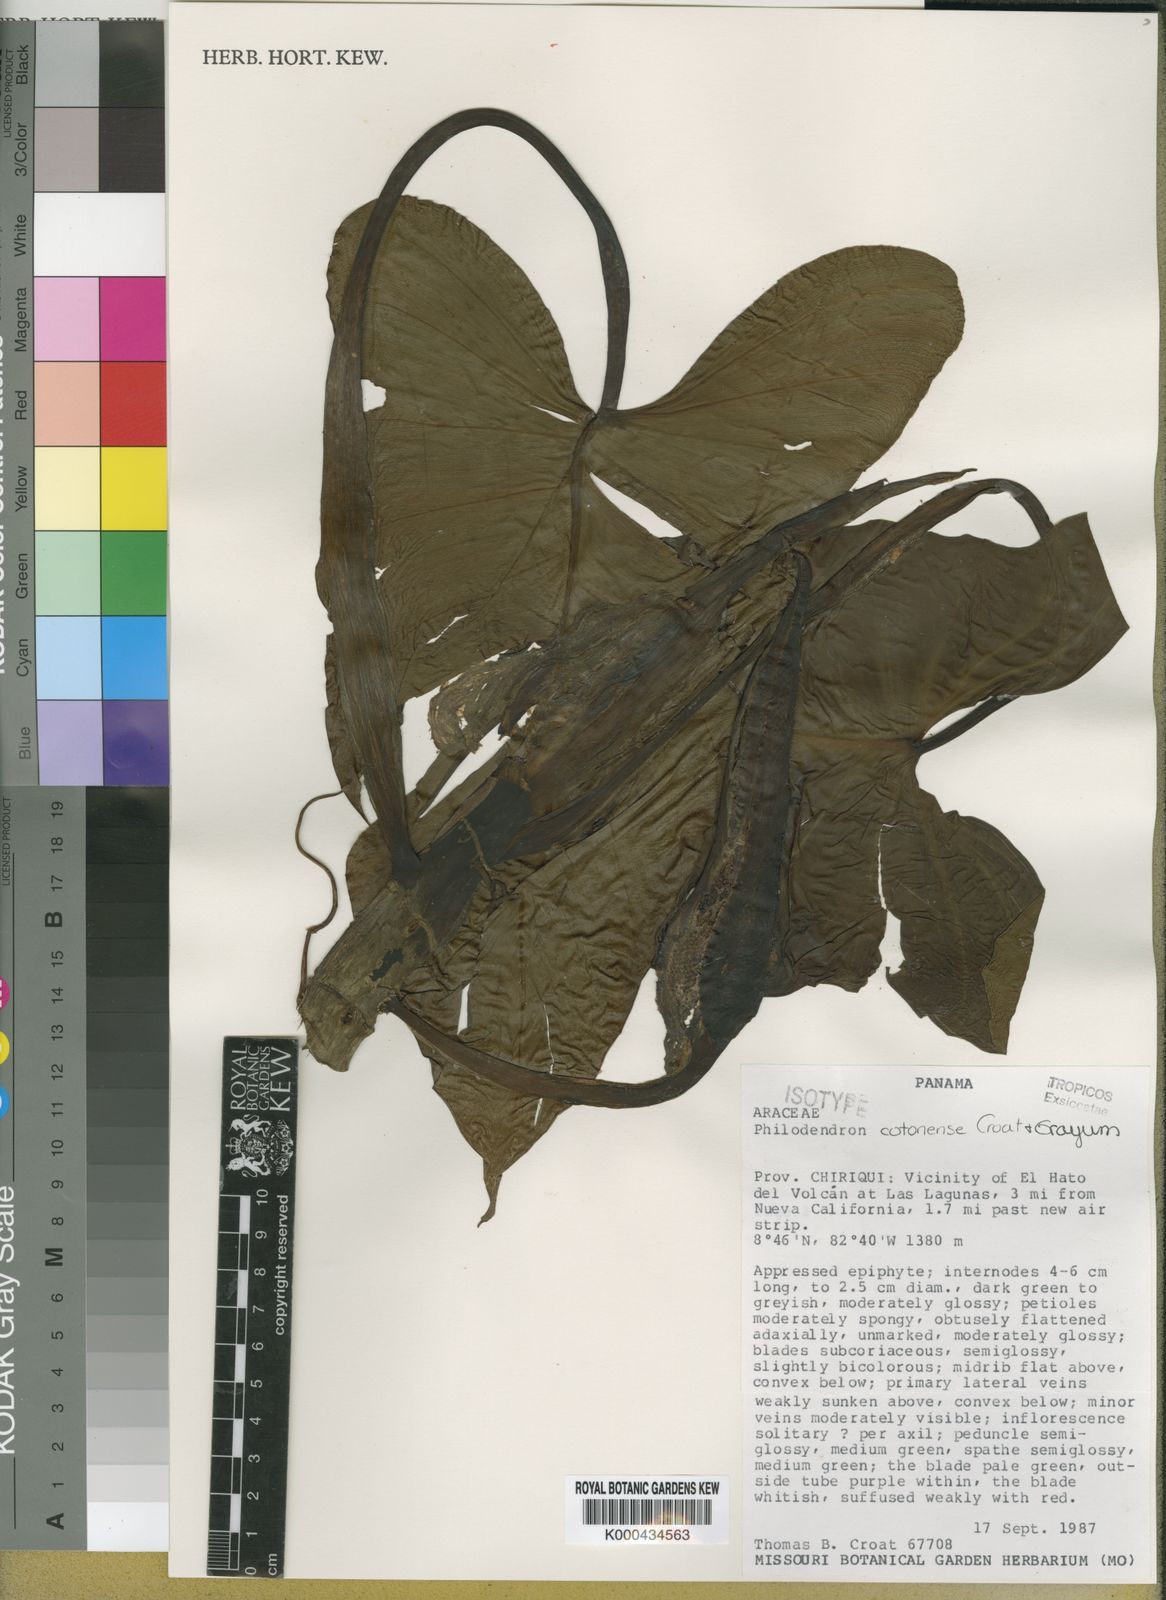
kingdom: Plantae
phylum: Tracheophyta
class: Liliopsida
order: Alismatales
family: Araceae
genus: Philodendron
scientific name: Philodendron cotonense
